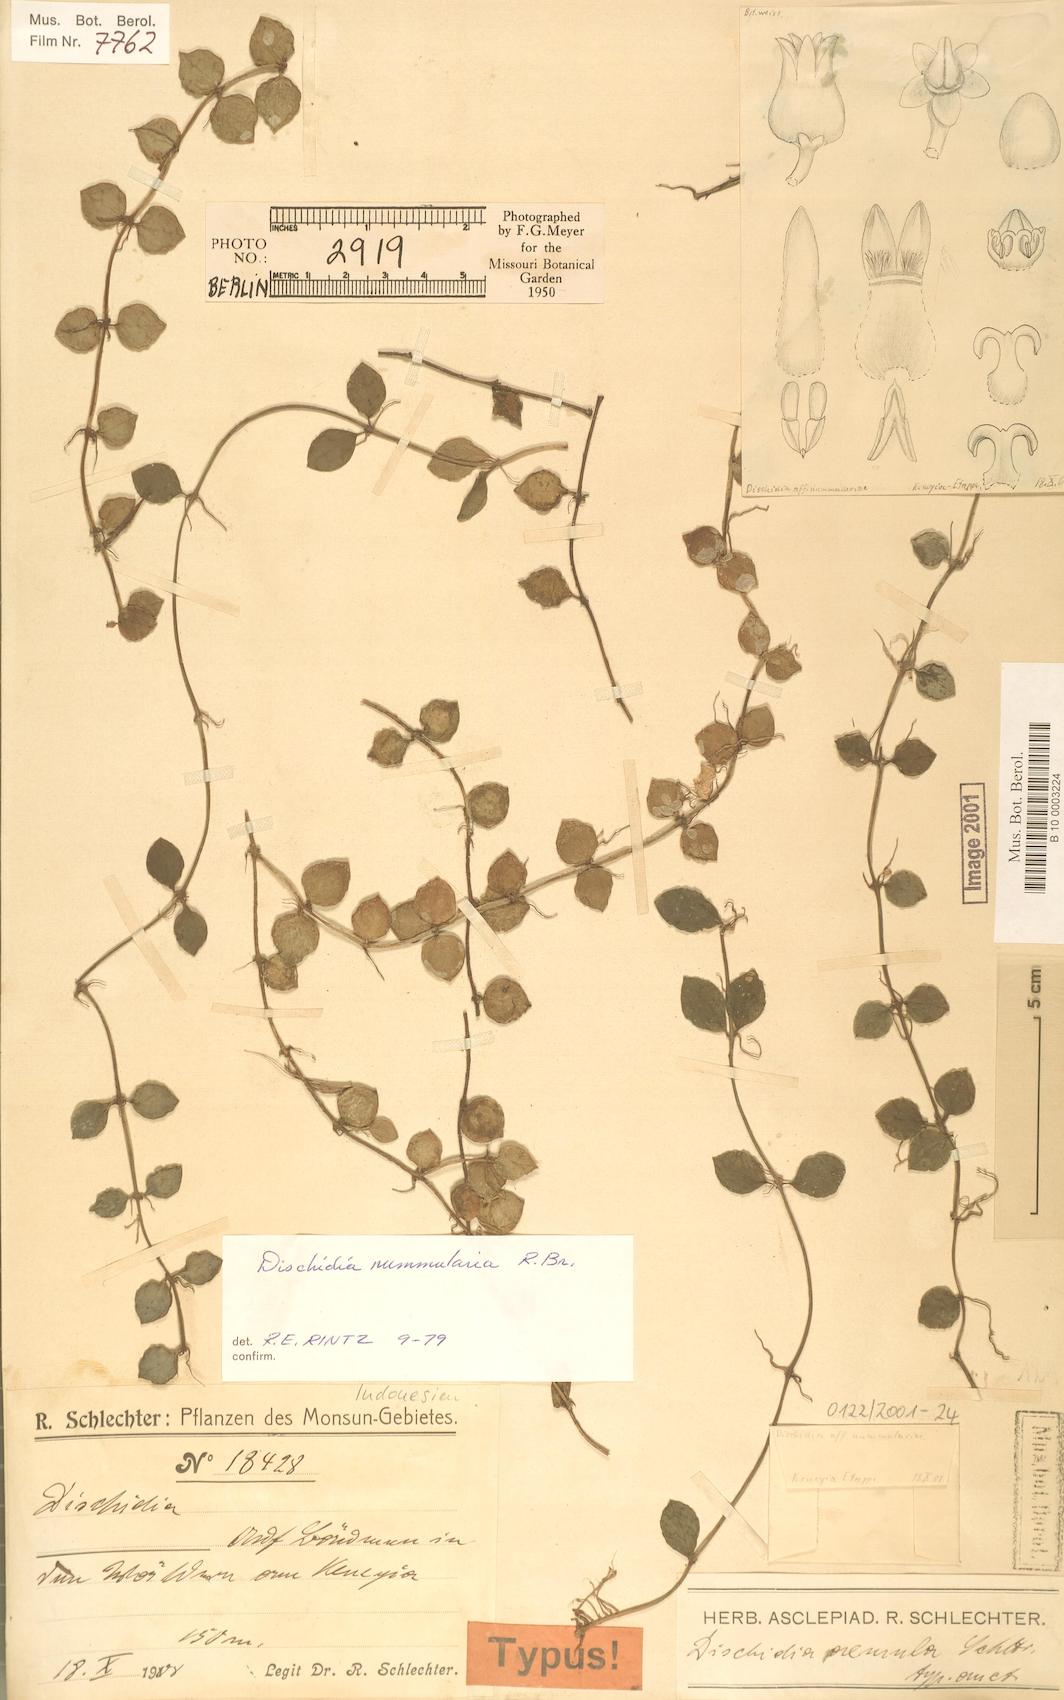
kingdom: Plantae
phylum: Tracheophyta
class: Magnoliopsida
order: Gentianales
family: Apocynaceae
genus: Dischidia
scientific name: Dischidia nummularia
